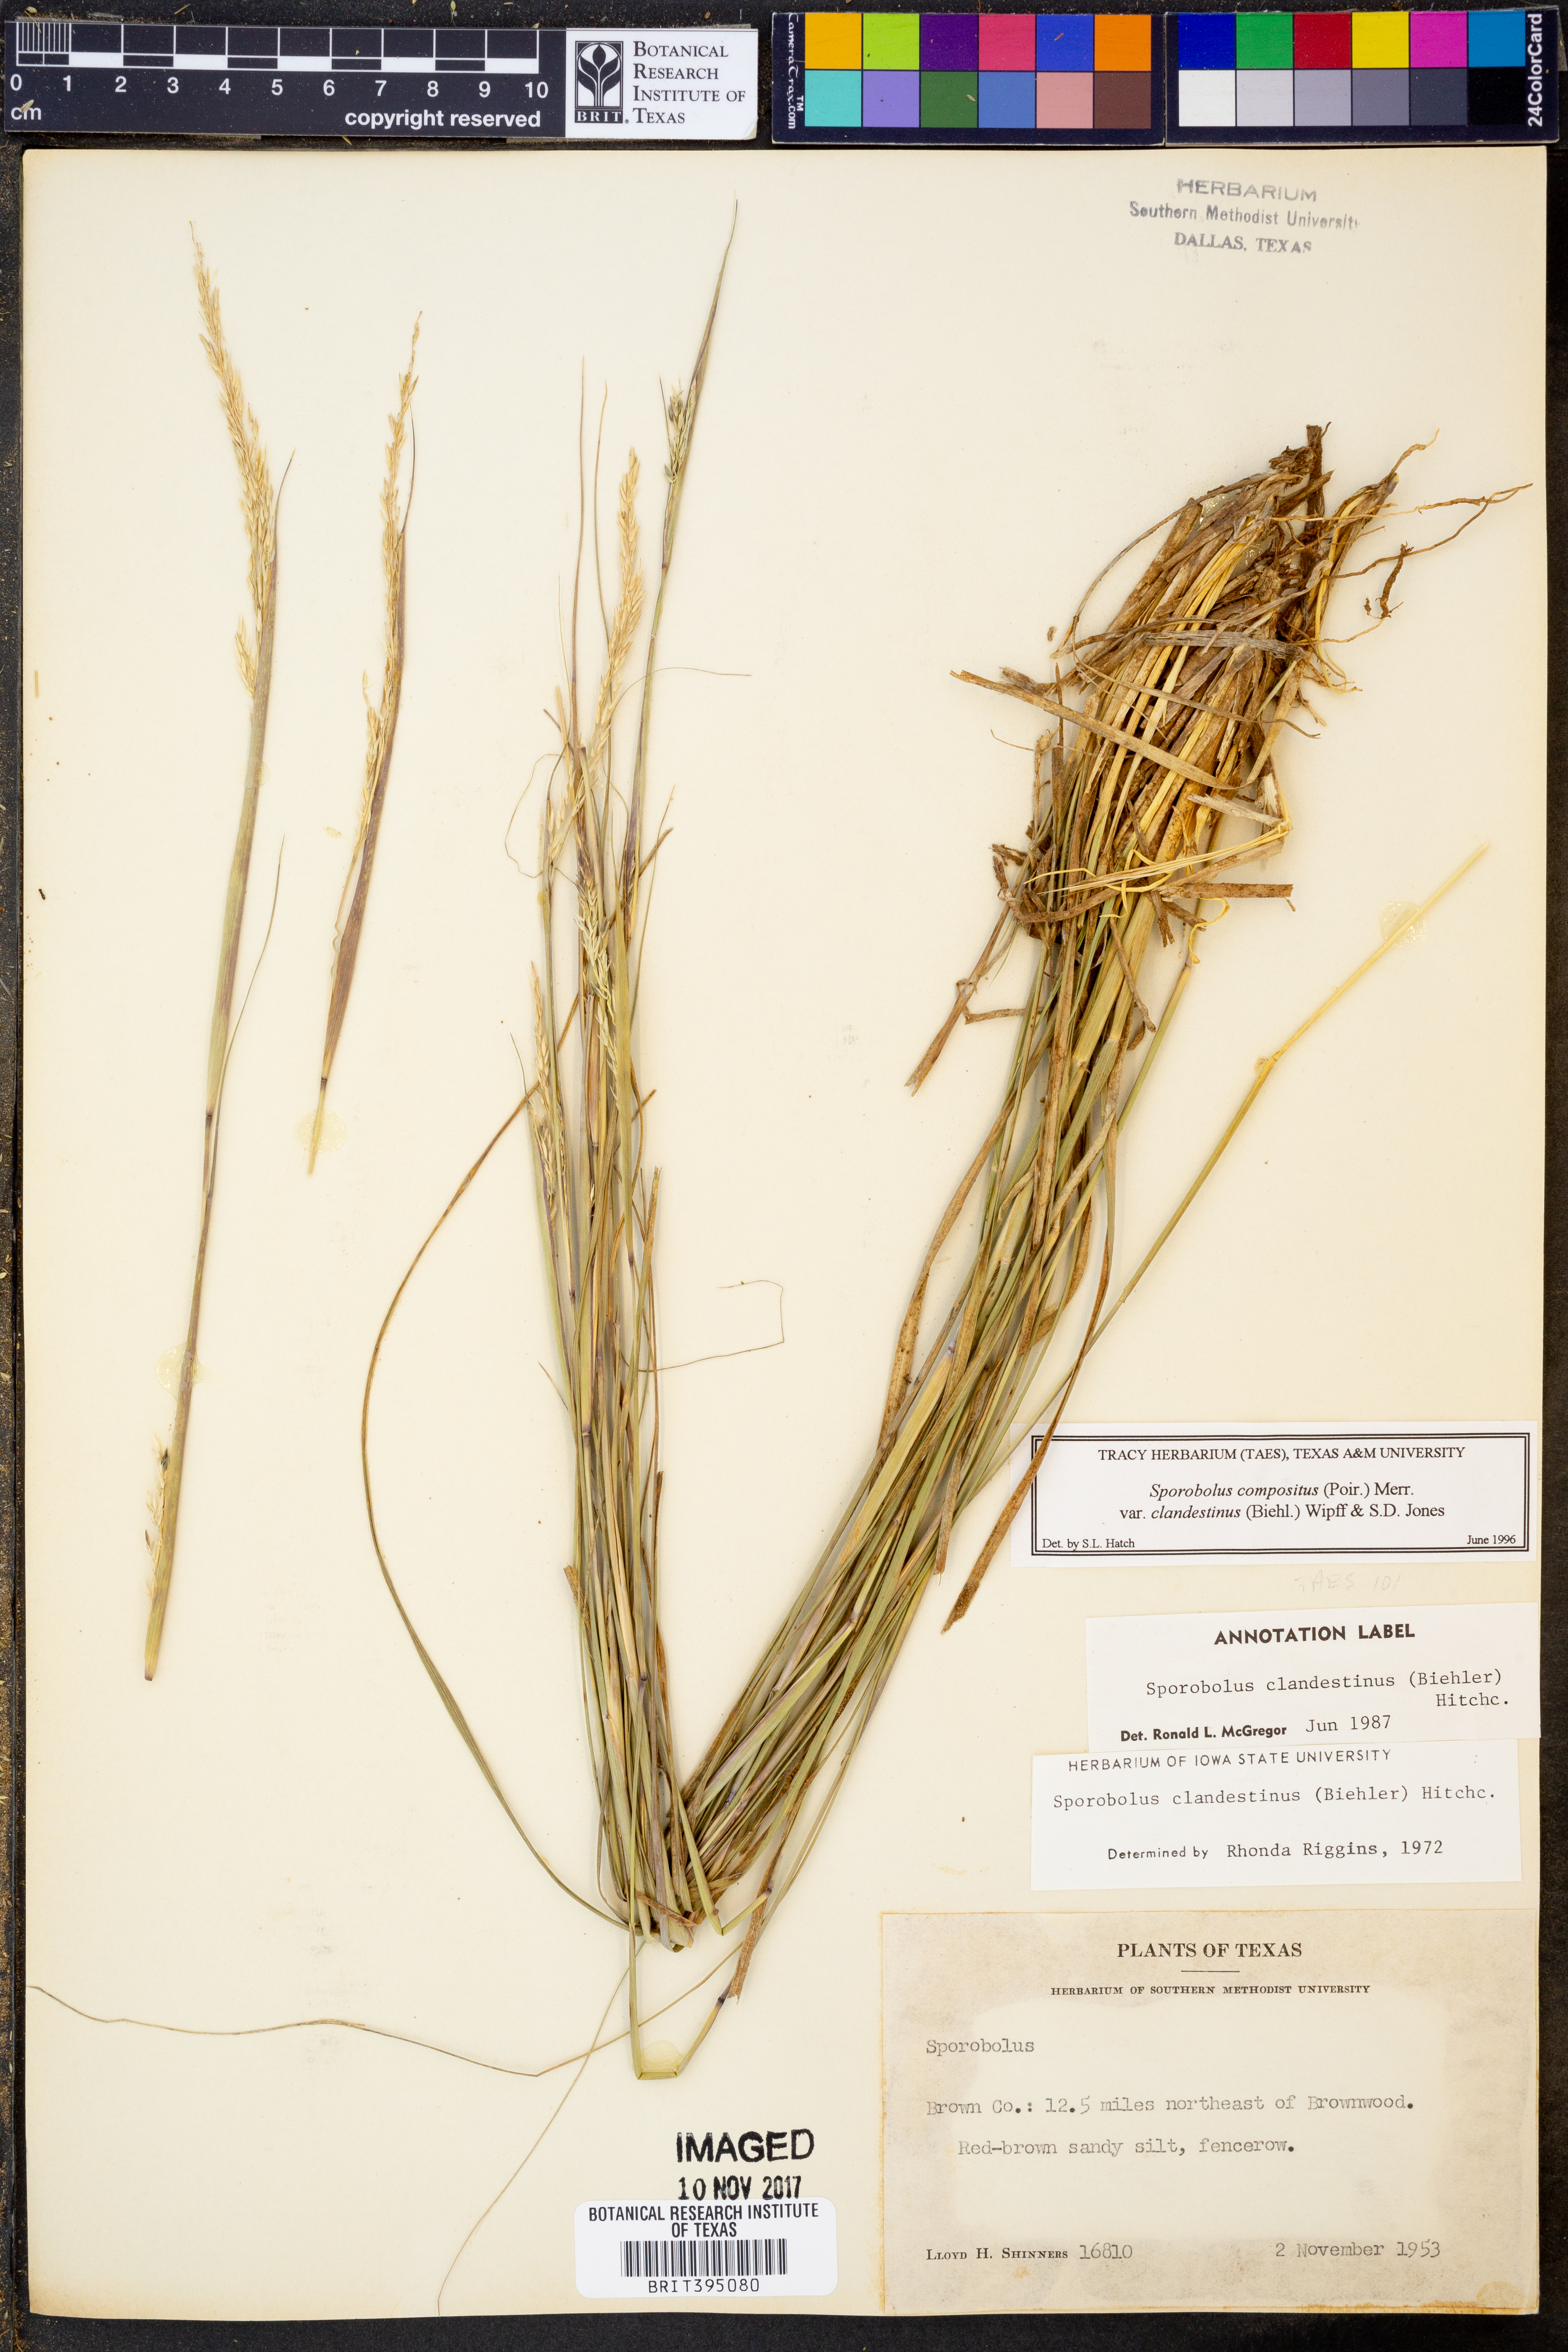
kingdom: Plantae
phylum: Tracheophyta
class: Liliopsida
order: Poales
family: Poaceae
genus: Sporobolus
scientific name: Sporobolus clandestinus
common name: Hidden dropseed
